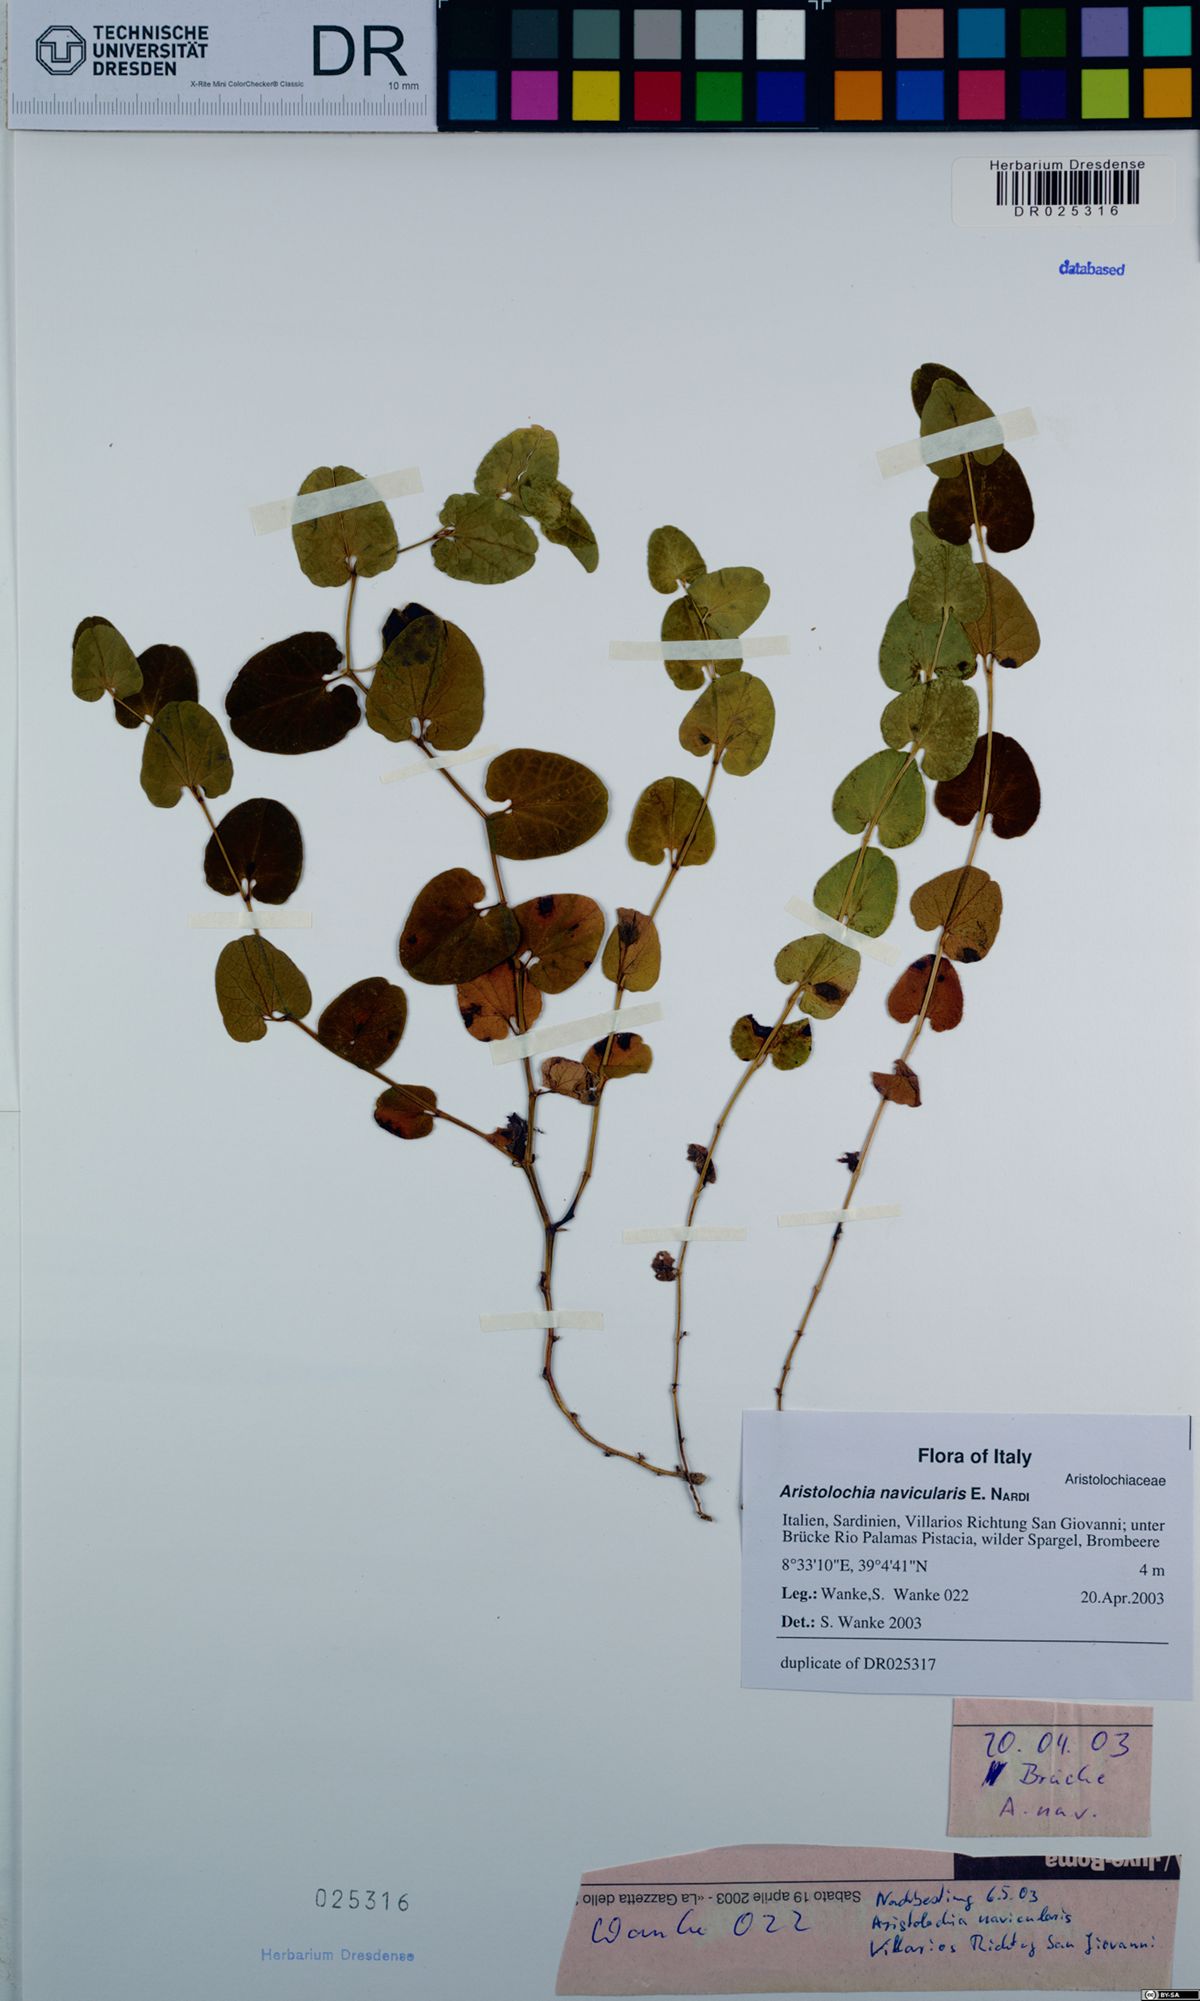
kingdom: Plantae
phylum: Tracheophyta
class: Magnoliopsida
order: Piperales
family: Aristolochiaceae
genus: Aristolochia
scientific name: Aristolochia navicularis
